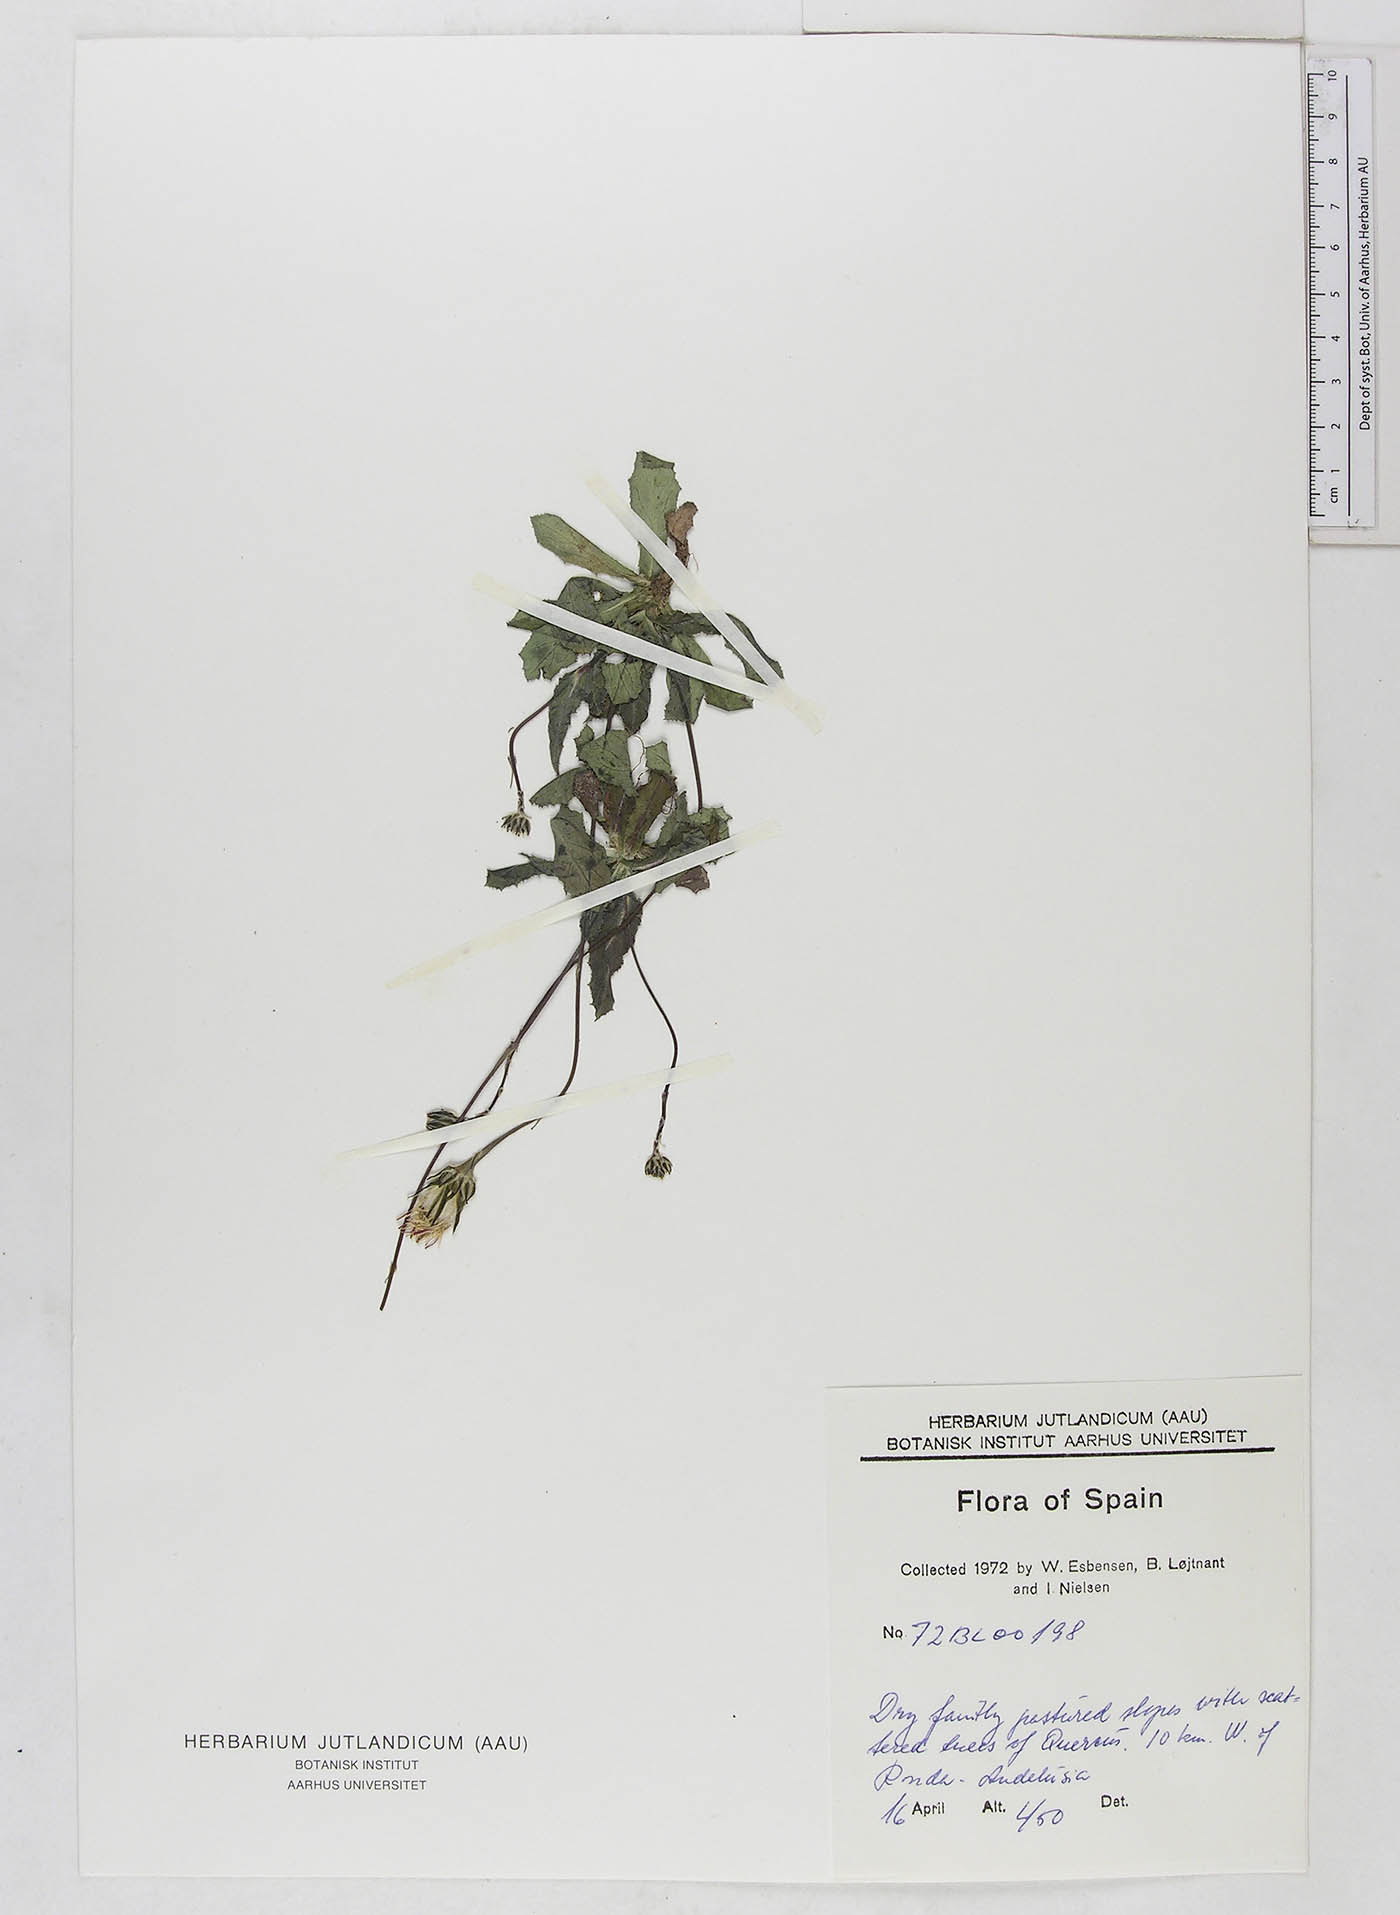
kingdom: Plantae
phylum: Tracheophyta
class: Magnoliopsida
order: Asterales
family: Asteraceae
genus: Reichardia
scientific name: Reichardia
